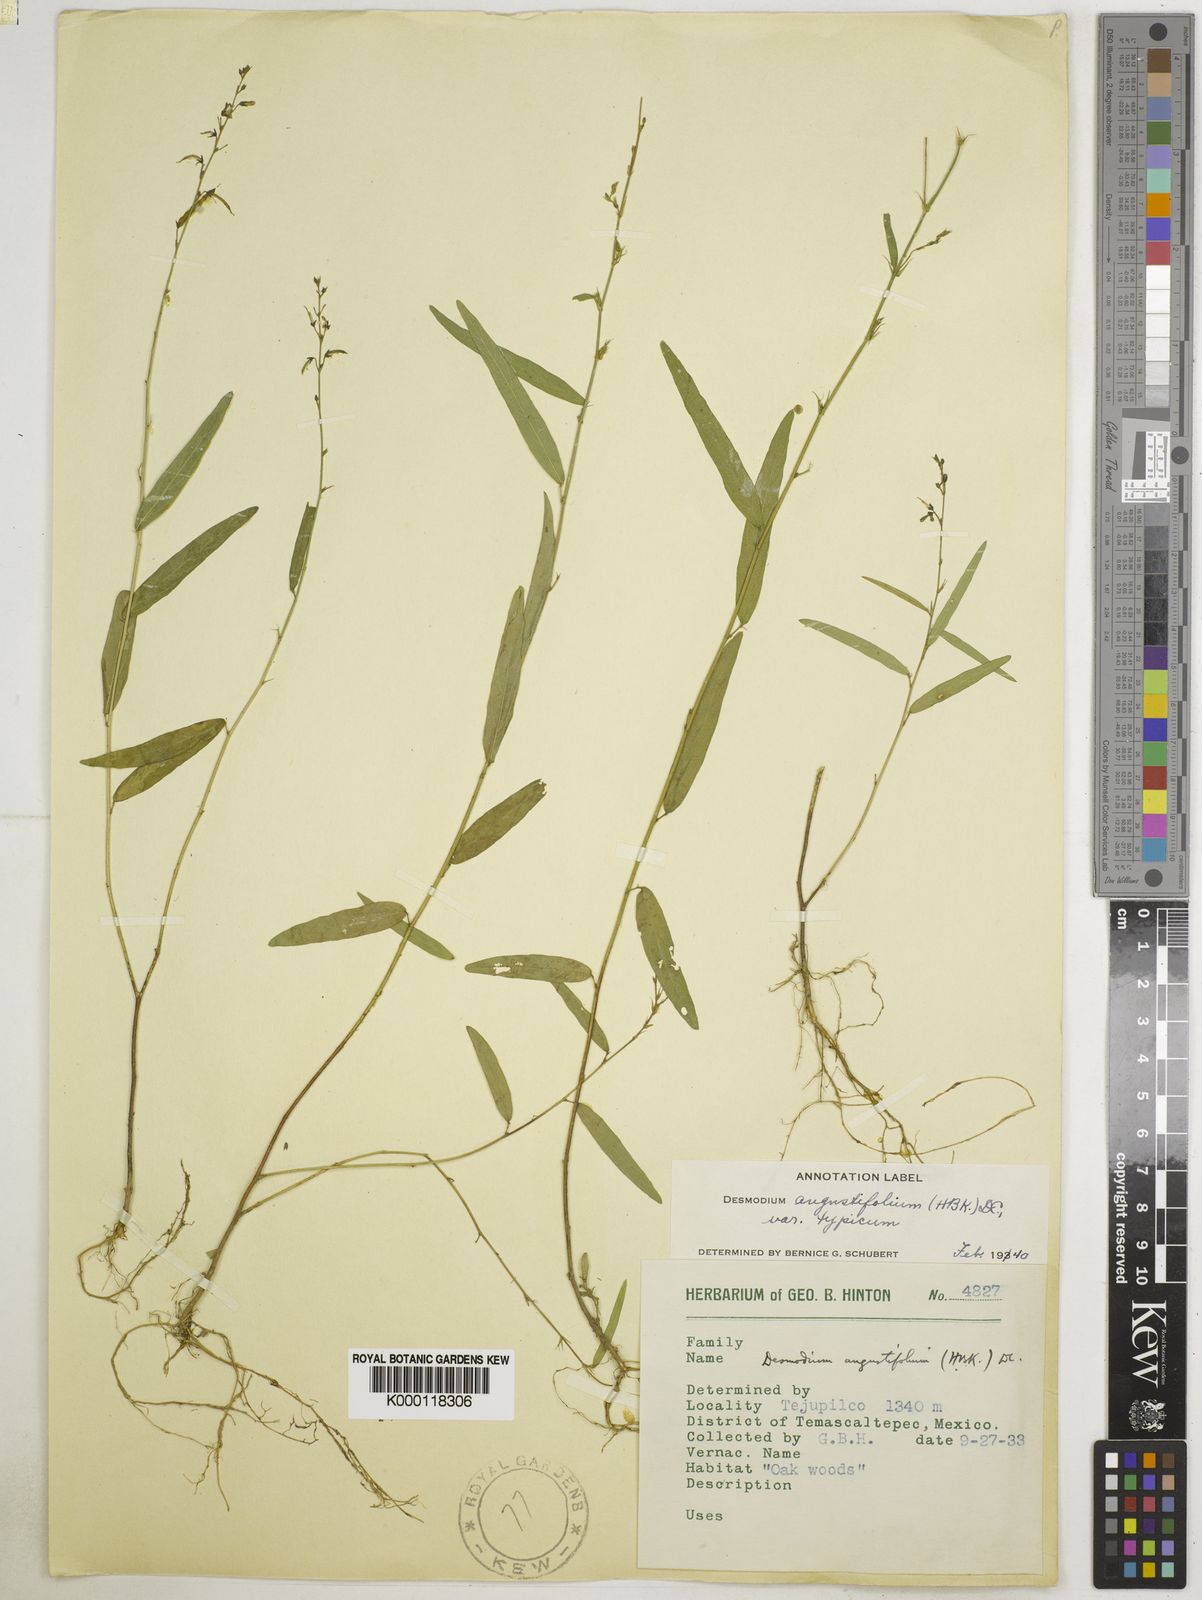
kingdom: Plantae
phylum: Tracheophyta
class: Magnoliopsida
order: Fabales
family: Fabaceae
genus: Desmodium
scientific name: Desmodium angustifolium
